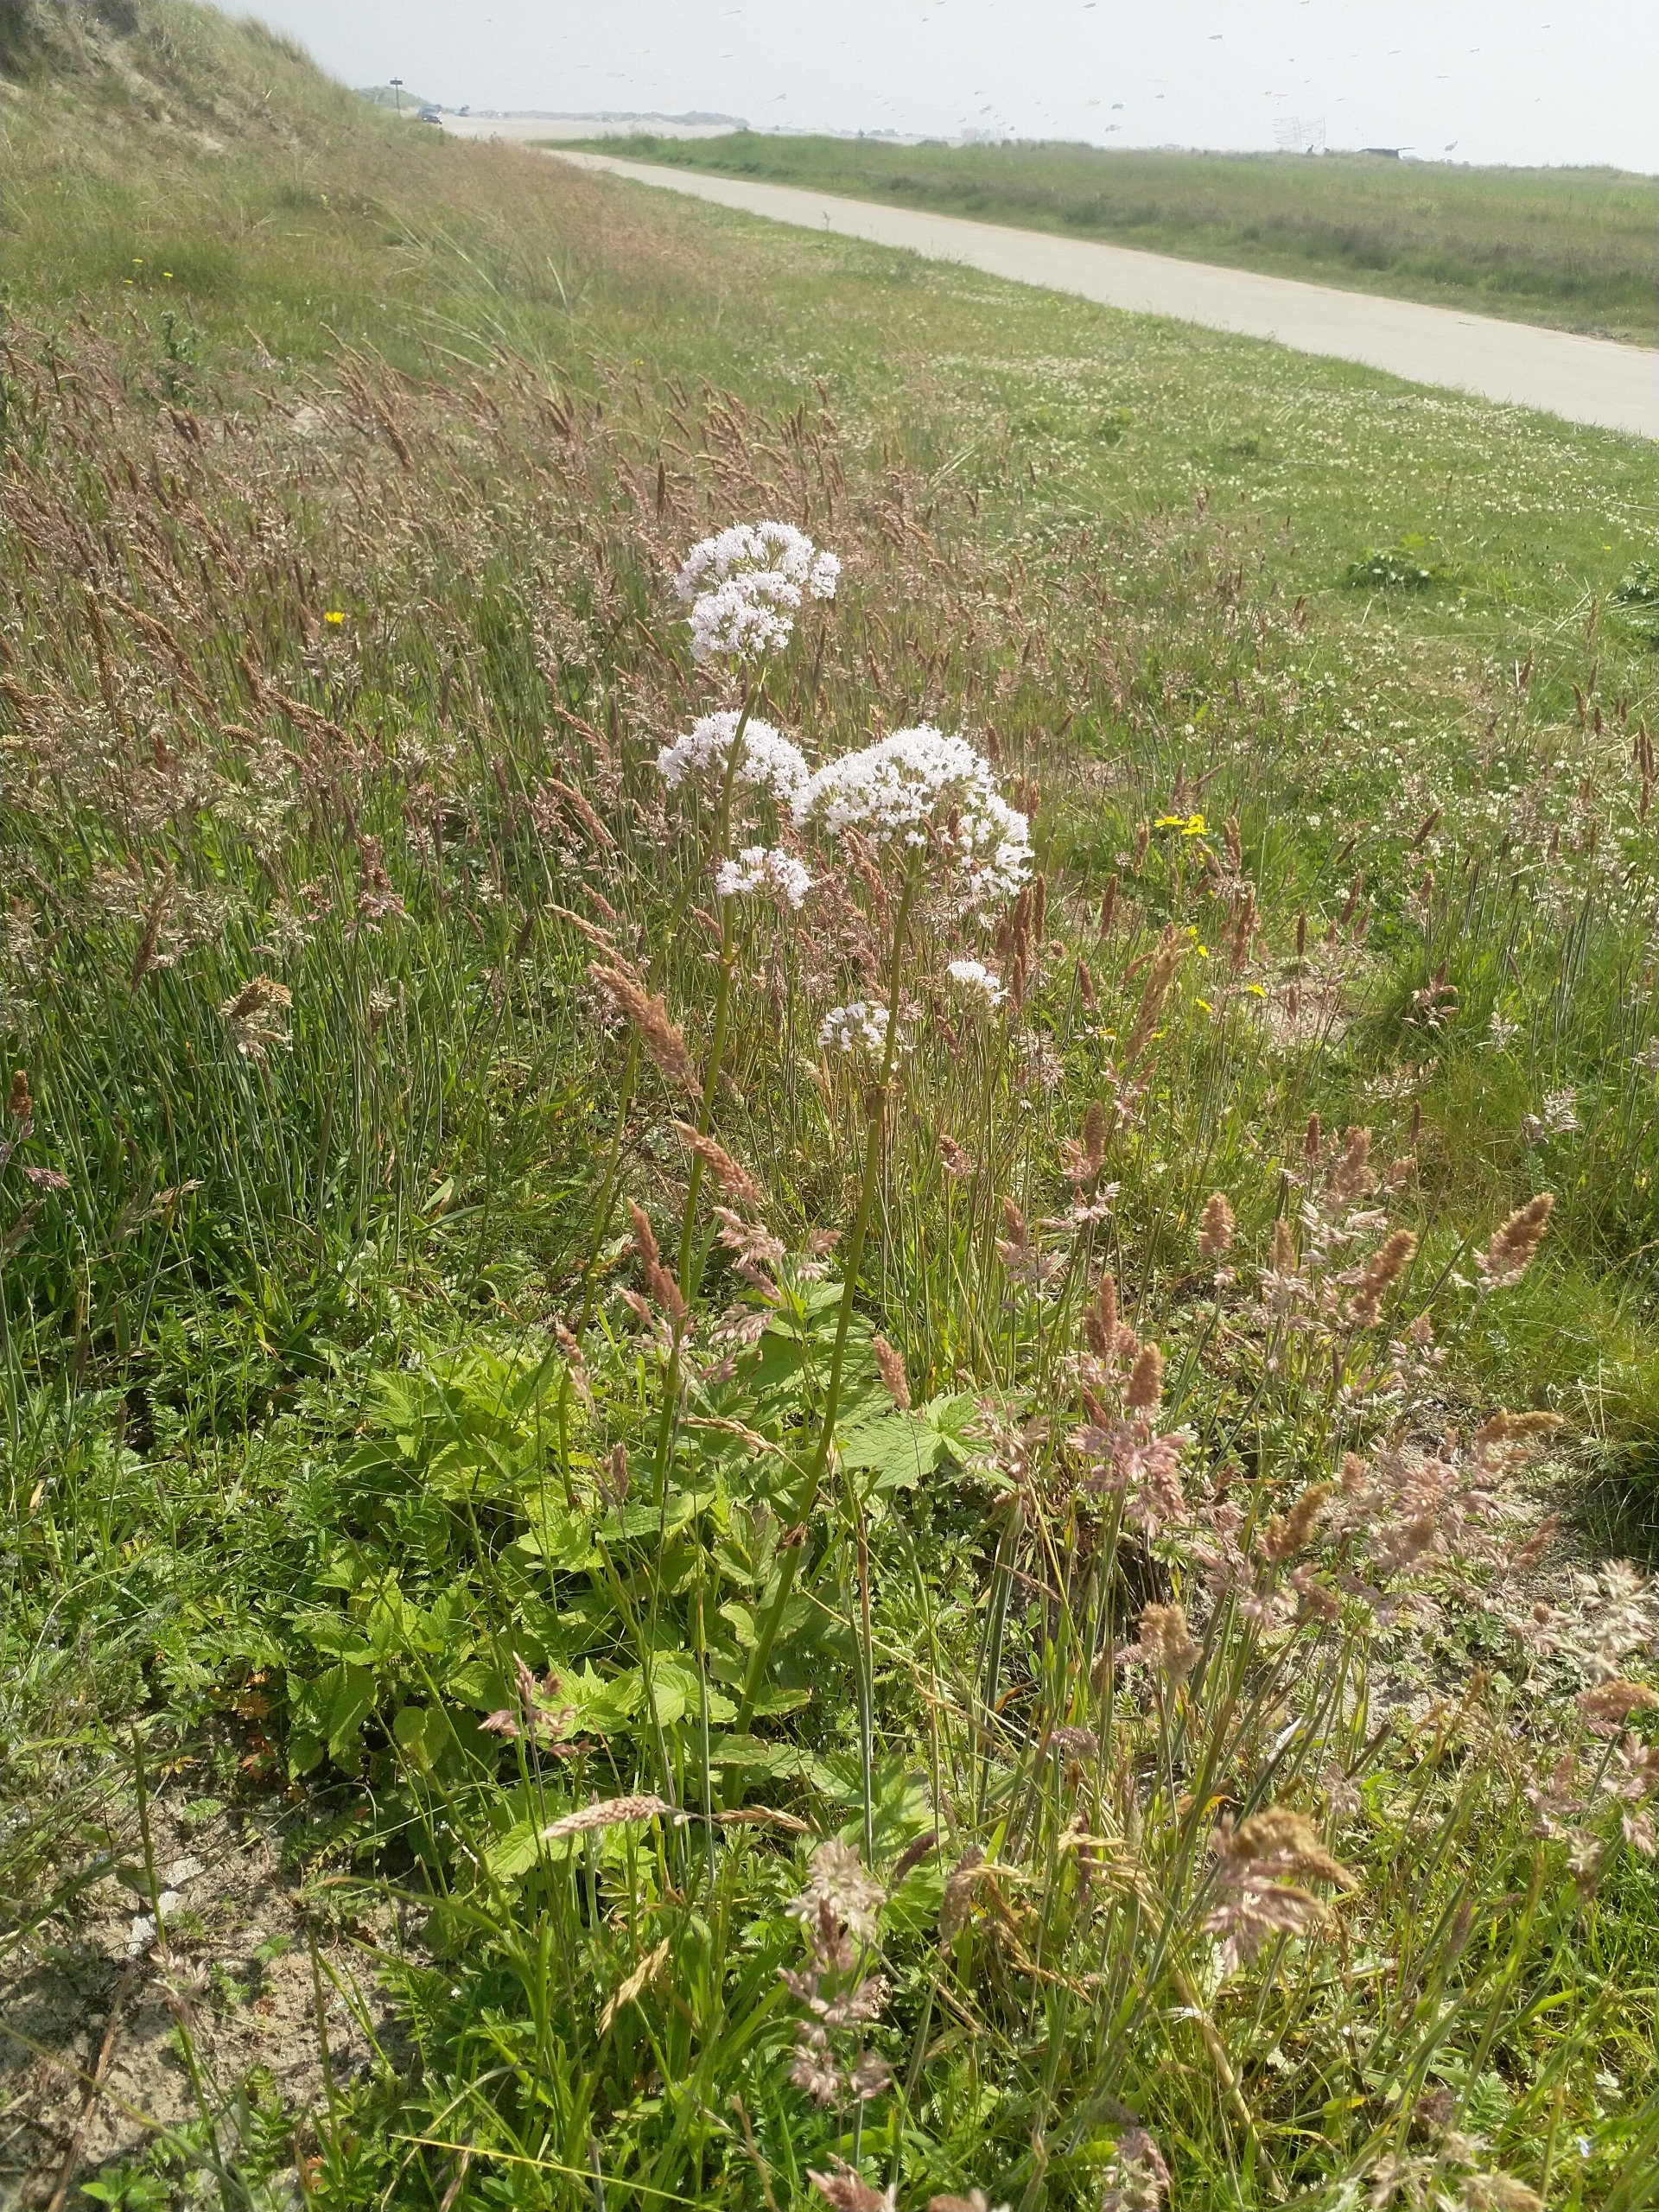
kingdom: Plantae
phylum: Tracheophyta
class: Magnoliopsida
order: Dipsacales
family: Caprifoliaceae
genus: Valeriana
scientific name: Valeriana sambucifolia
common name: Hyldebladet baldrian
